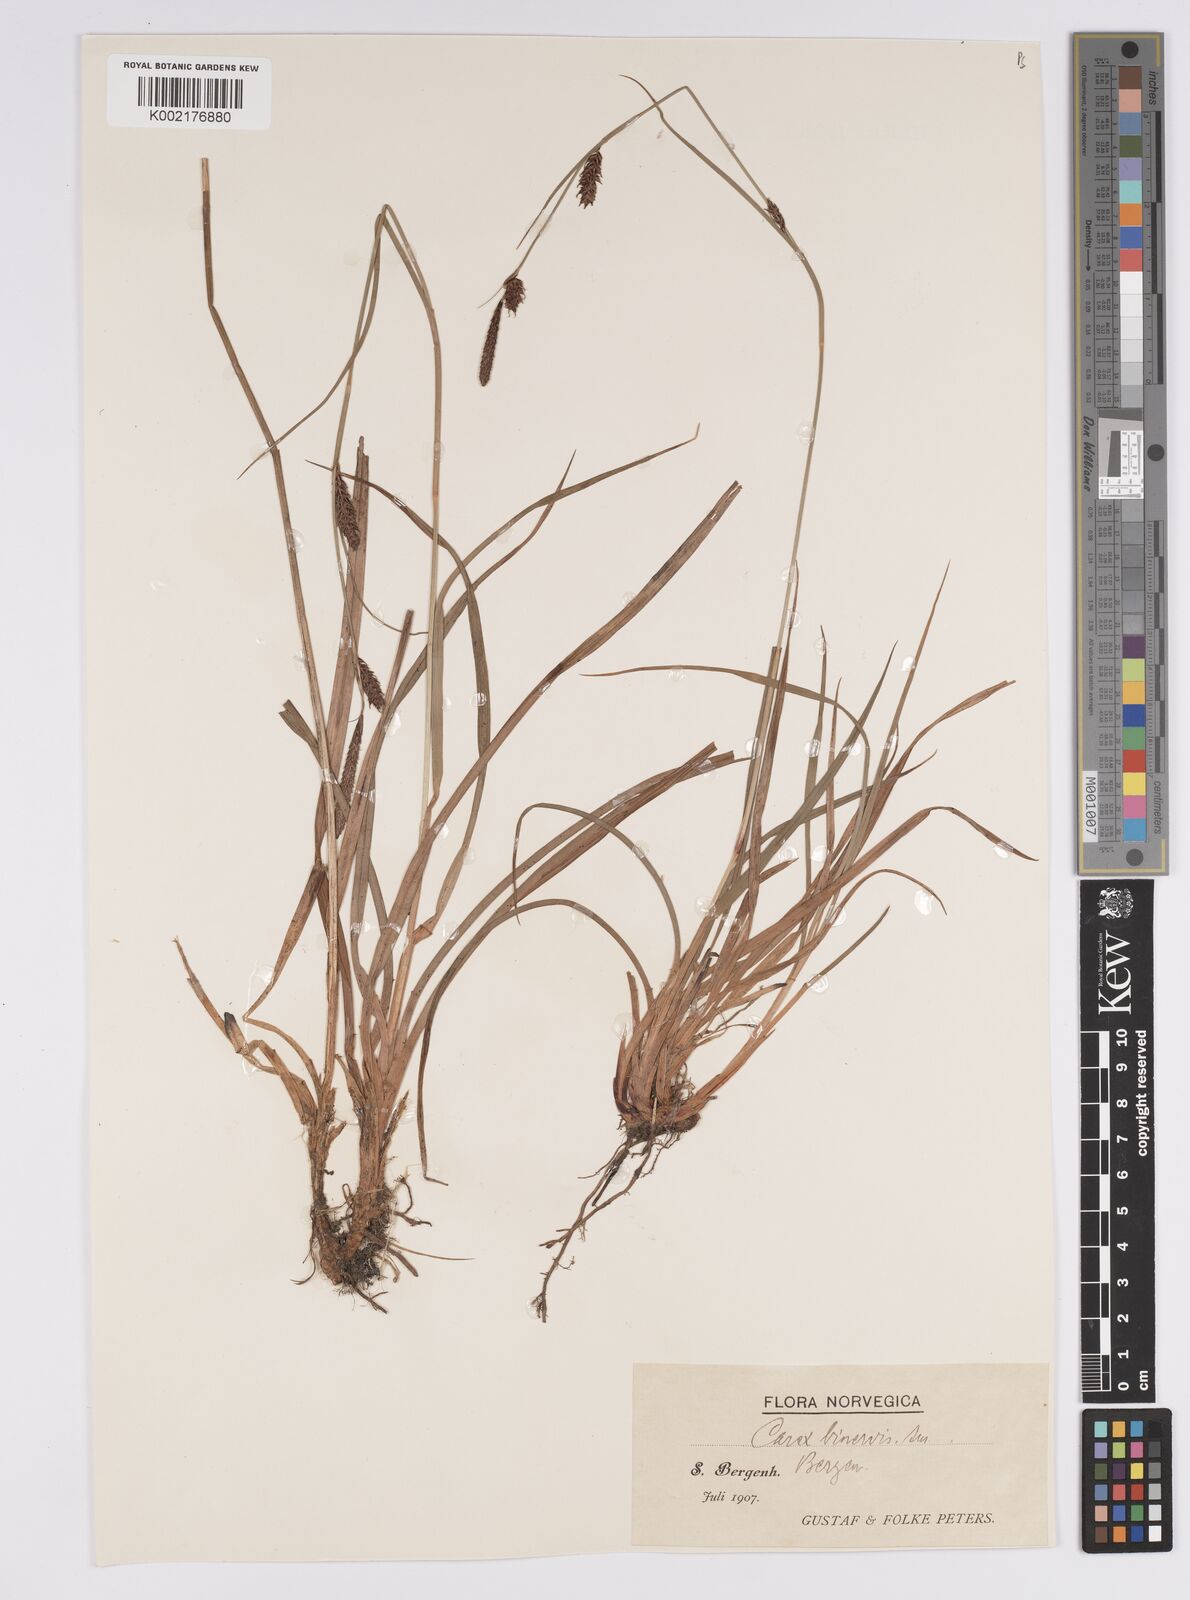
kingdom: Plantae
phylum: Tracheophyta
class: Liliopsida
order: Poales
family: Cyperaceae
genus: Carex
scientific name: Carex binervis
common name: Green-ribbed sedge
